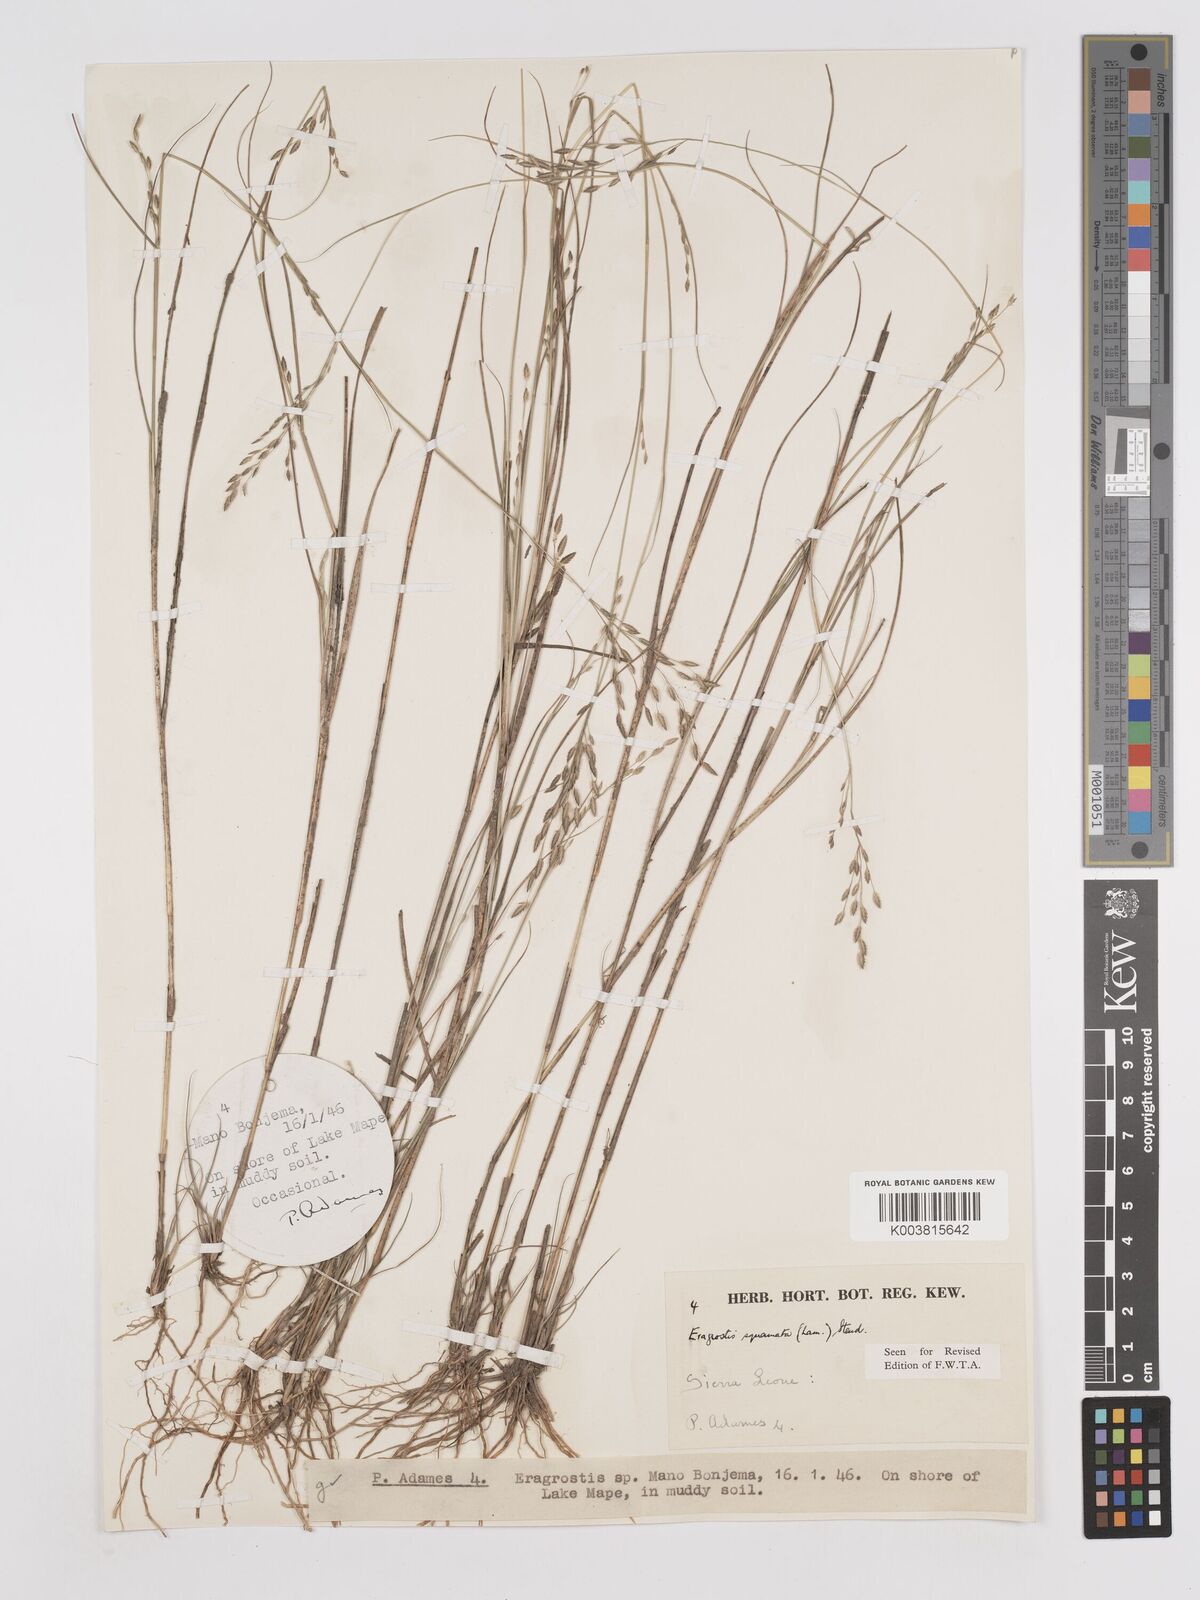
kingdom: Plantae
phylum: Tracheophyta
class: Liliopsida
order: Poales
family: Poaceae
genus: Eragrostis
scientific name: Eragrostis squamata
